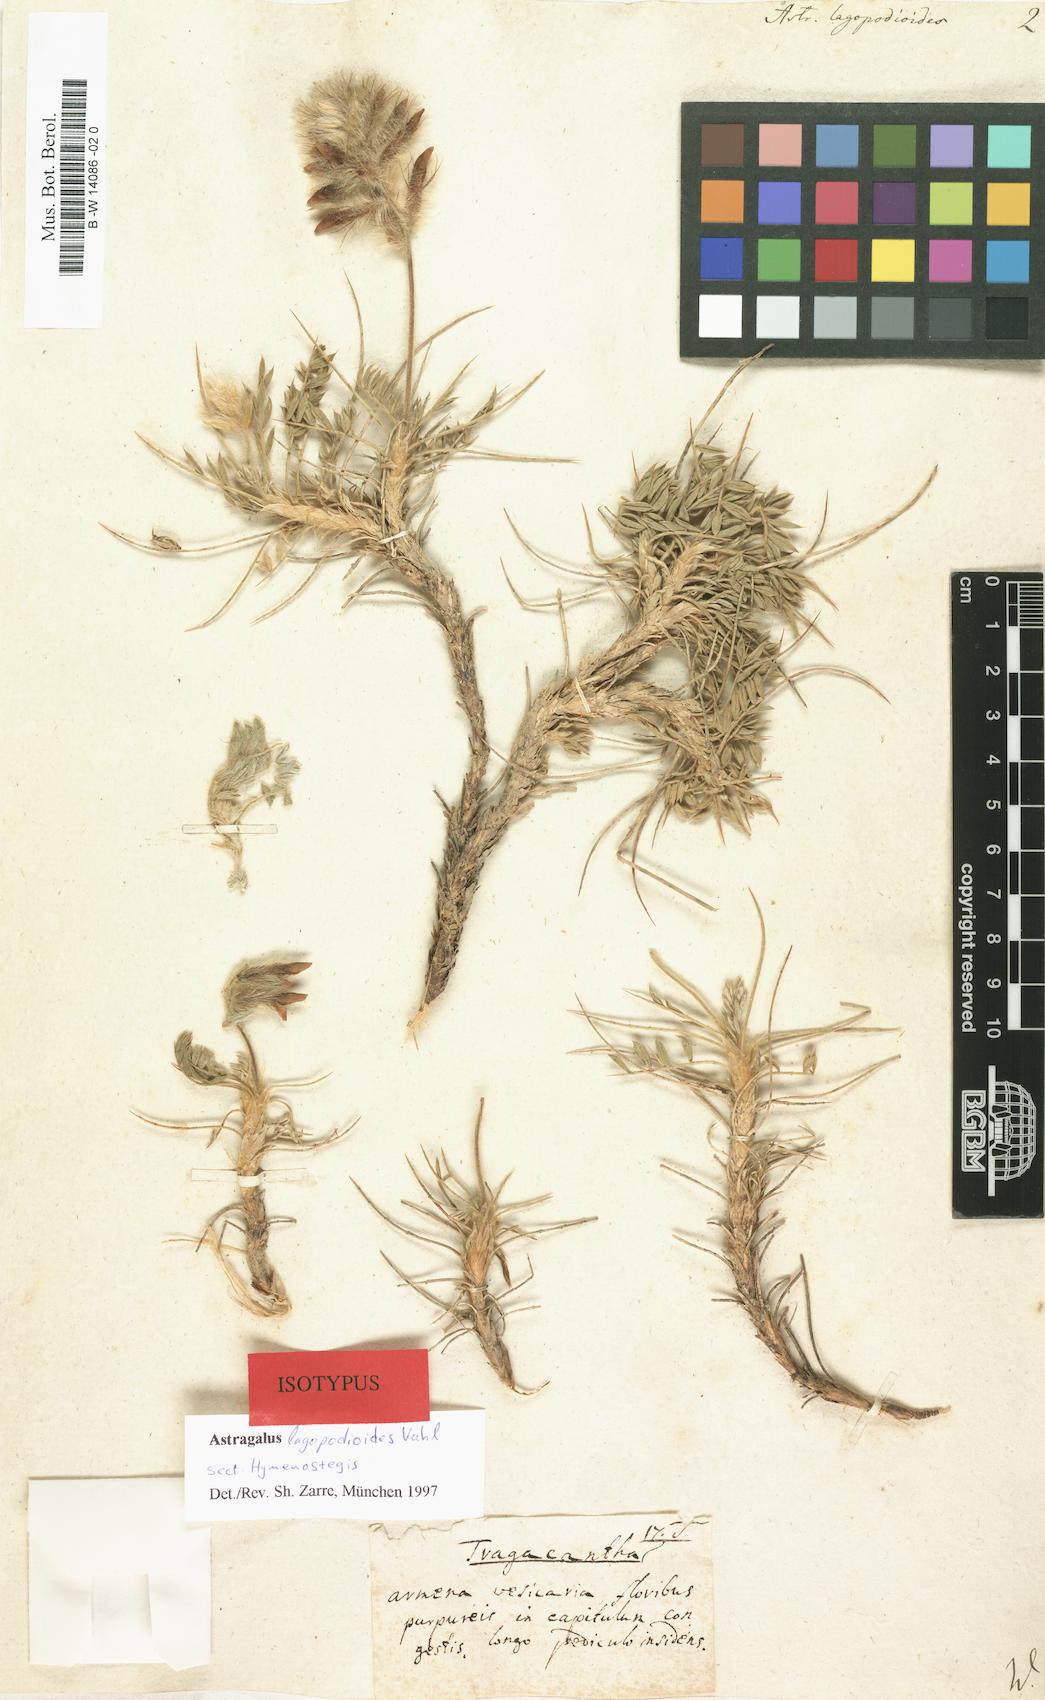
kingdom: Plantae
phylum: Tracheophyta
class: Magnoliopsida
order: Fabales
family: Fabaceae
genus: Astragalus
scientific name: Astragalus lagopodioides
